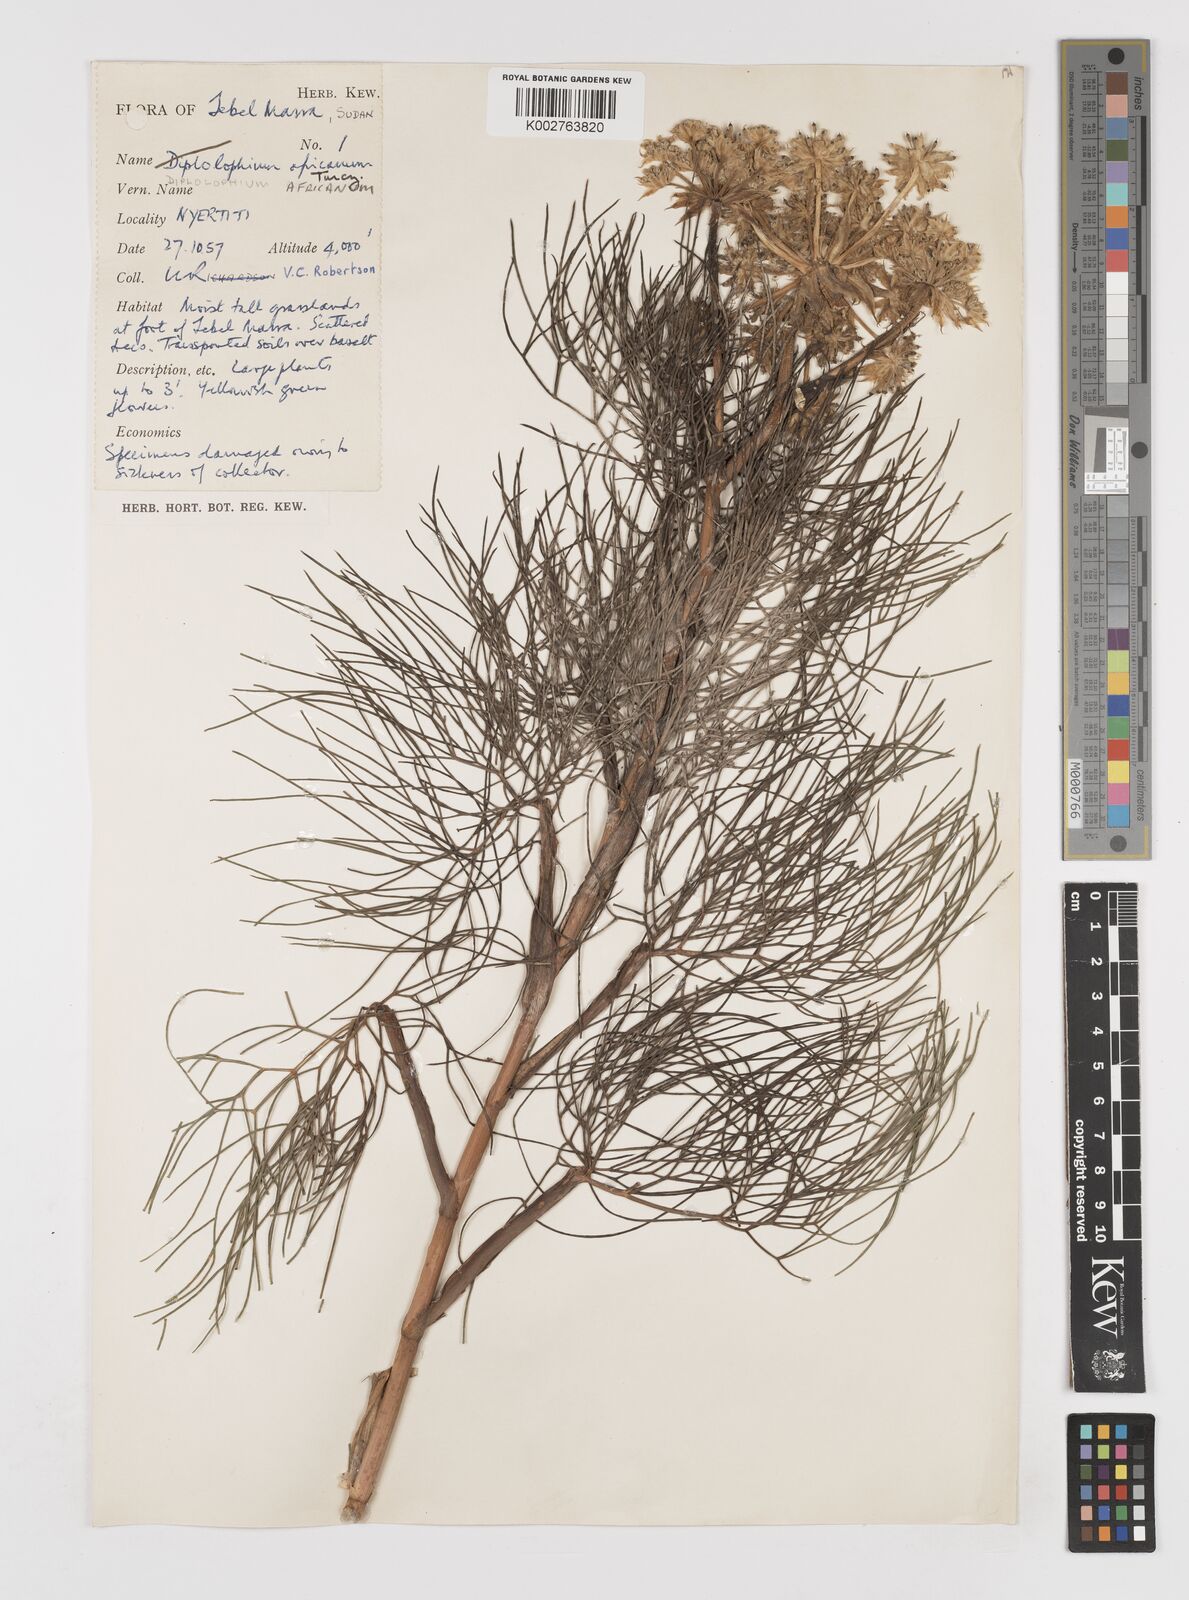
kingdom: Plantae
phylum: Tracheophyta
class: Magnoliopsida
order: Apiales
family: Apiaceae
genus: Diplolophium
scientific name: Diplolophium africanum
